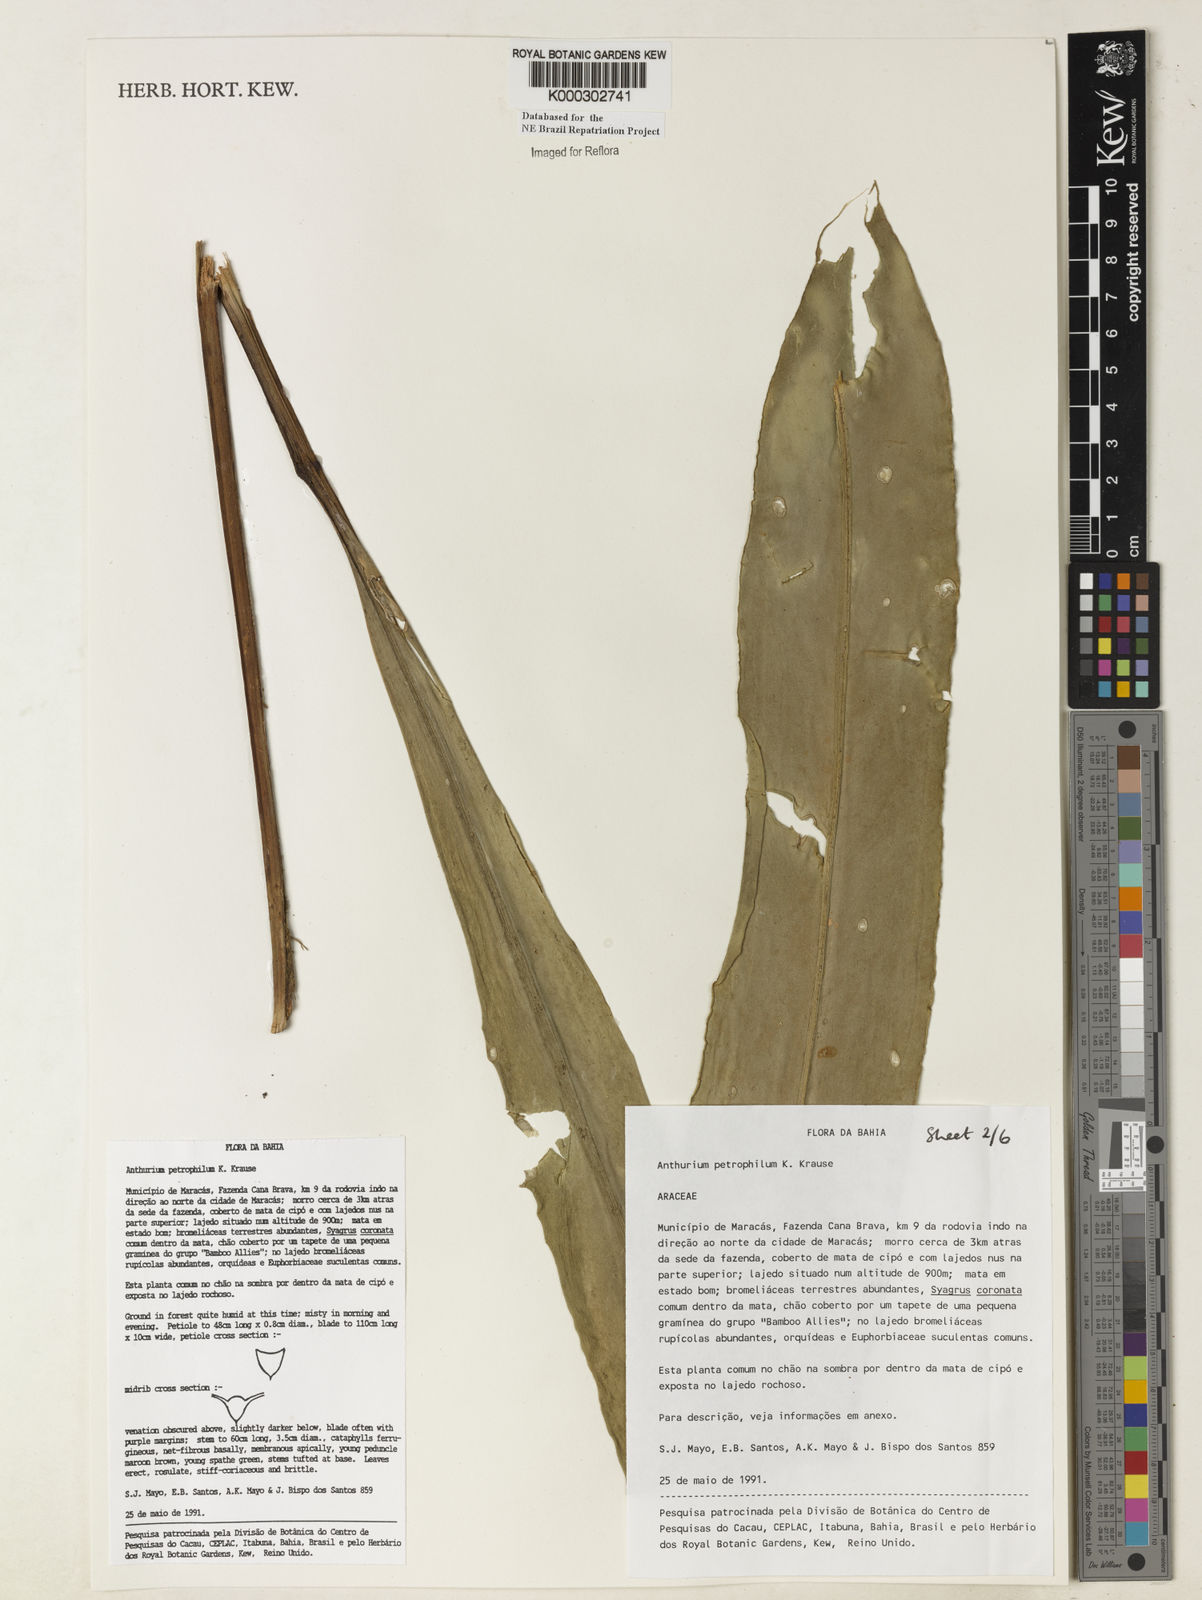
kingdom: Plantae
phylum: Tracheophyta
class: Liliopsida
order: Alismatales
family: Araceae
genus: Anthurium
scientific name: Anthurium petrophilum
